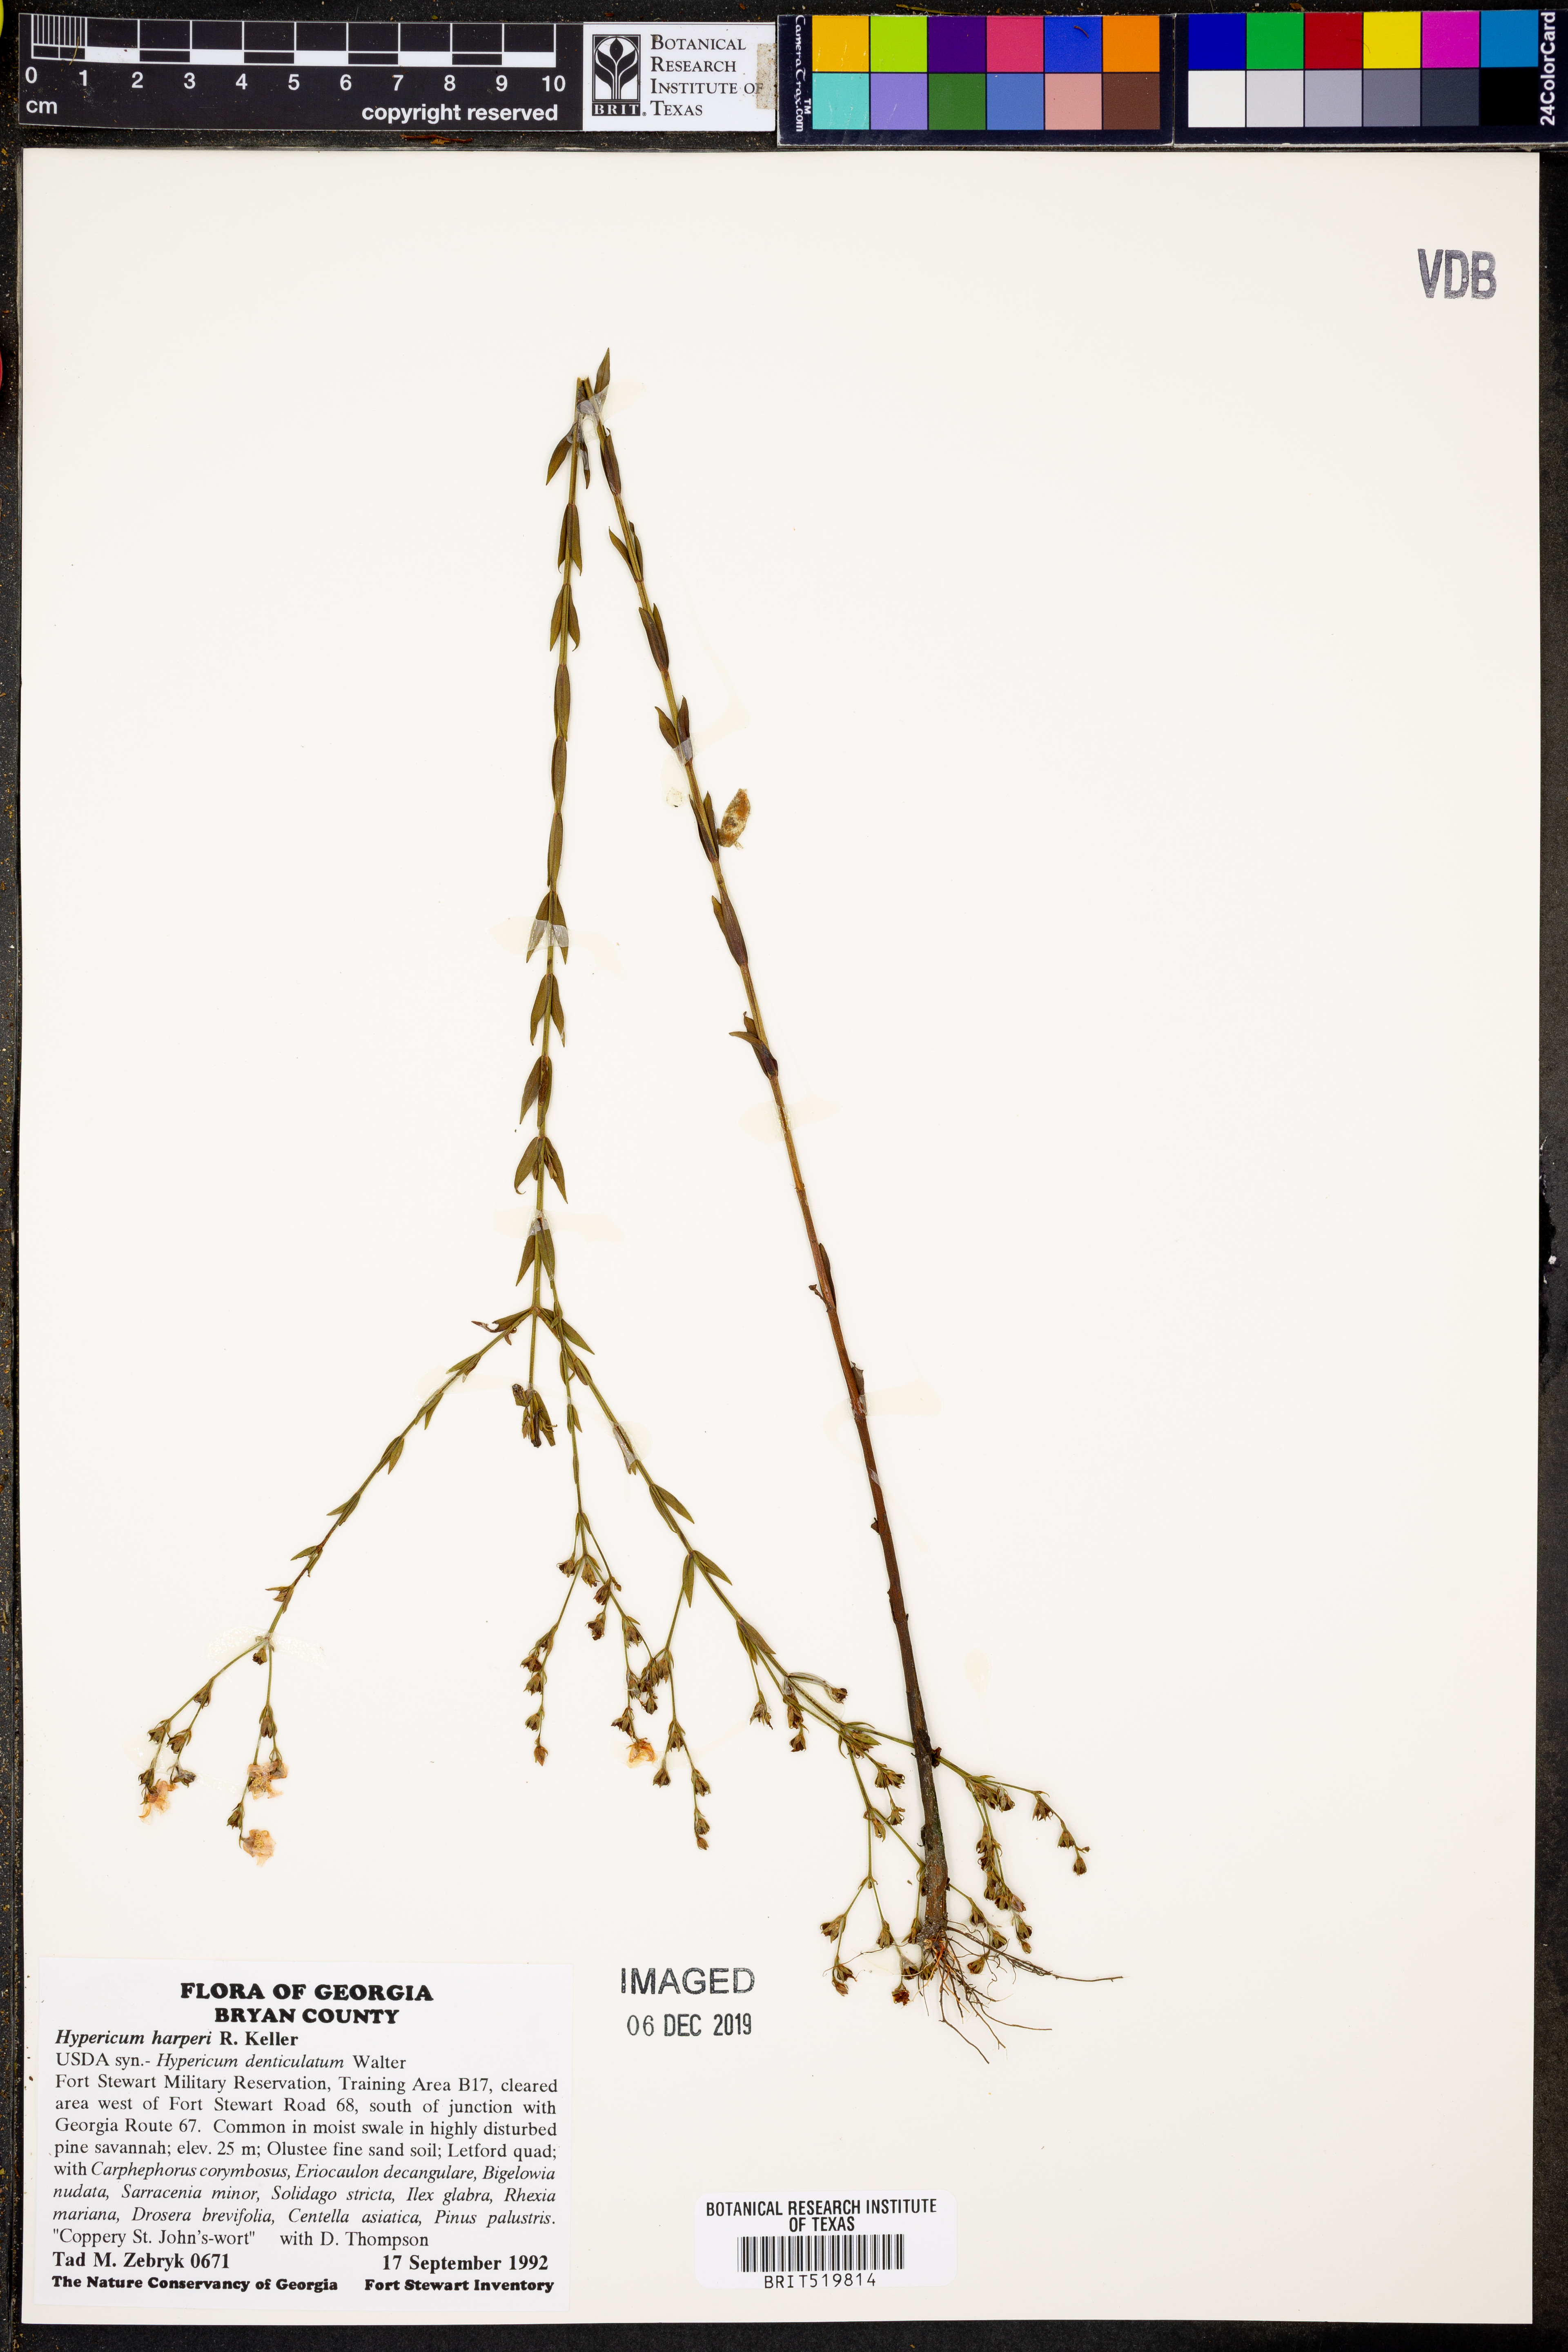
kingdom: Plantae
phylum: Tracheophyta
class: Magnoliopsida
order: Malpighiales
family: Hypericaceae
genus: Hypericum
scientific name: Hypericum harperi
